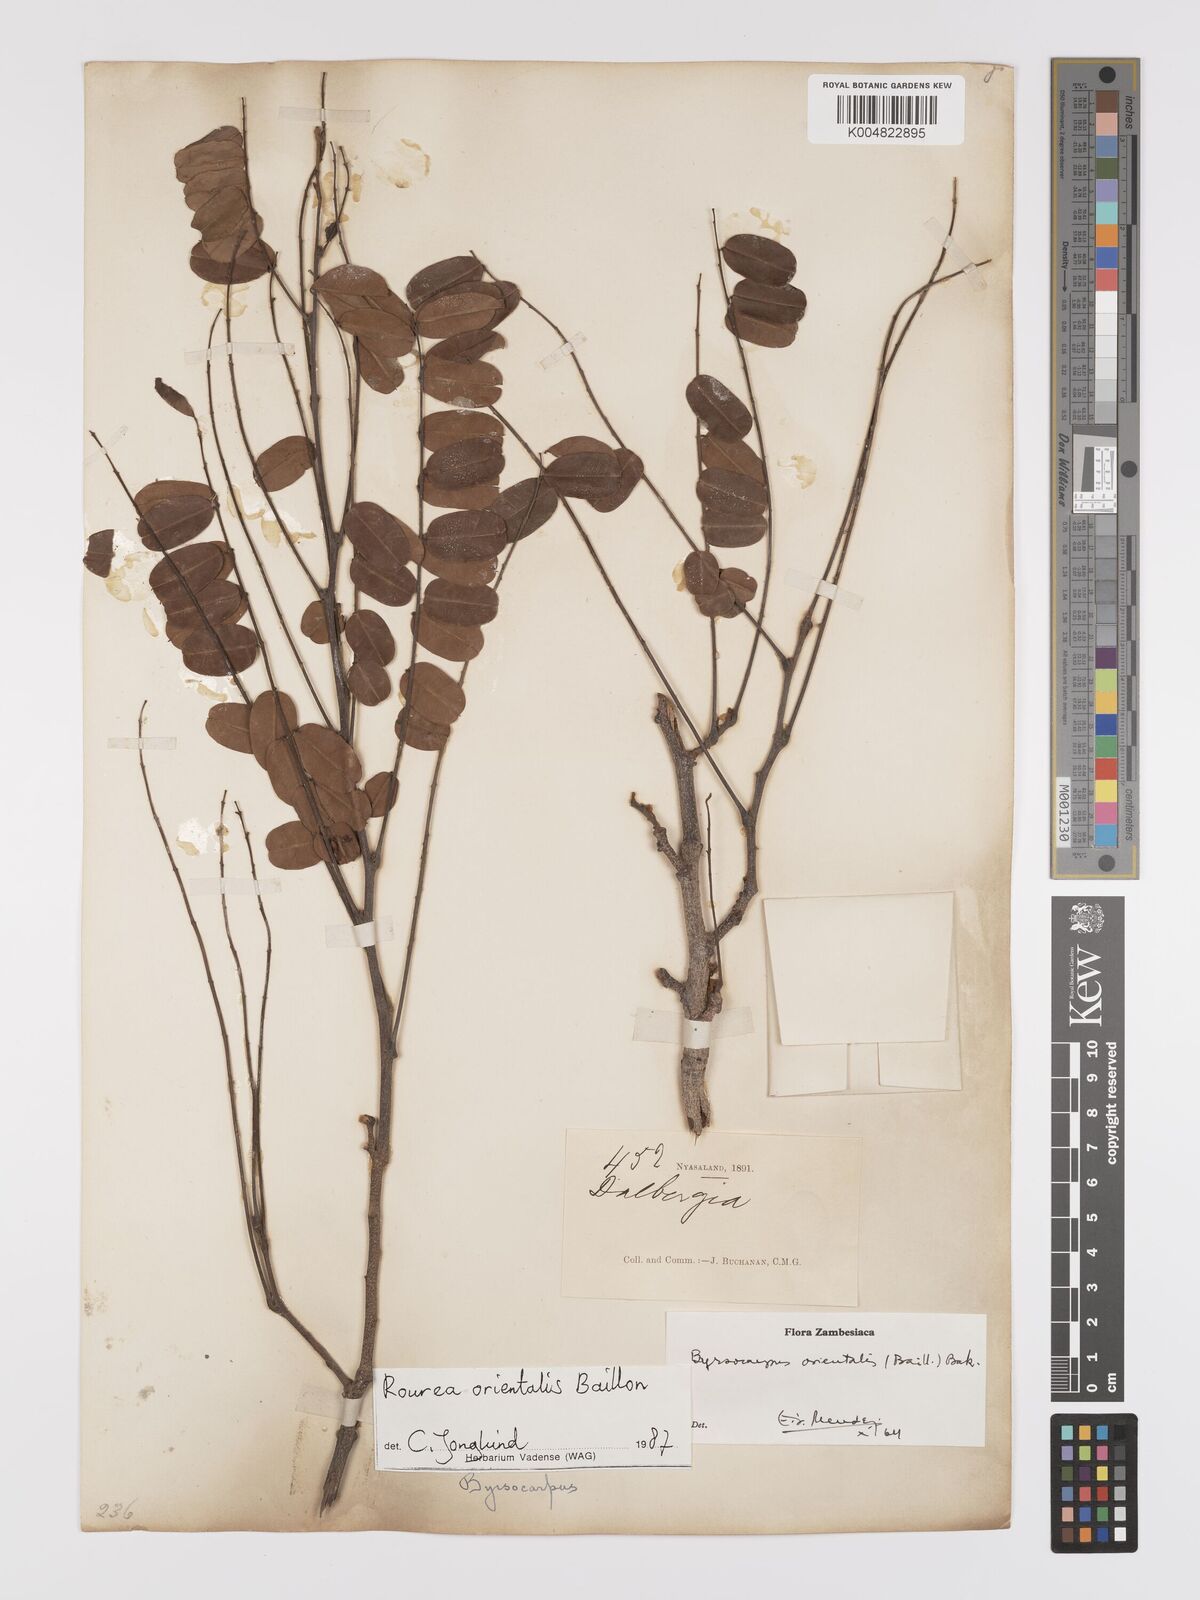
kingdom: Plantae
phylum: Tracheophyta
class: Magnoliopsida
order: Oxalidales
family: Connaraceae
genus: Rourea
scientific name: Rourea orientalis
